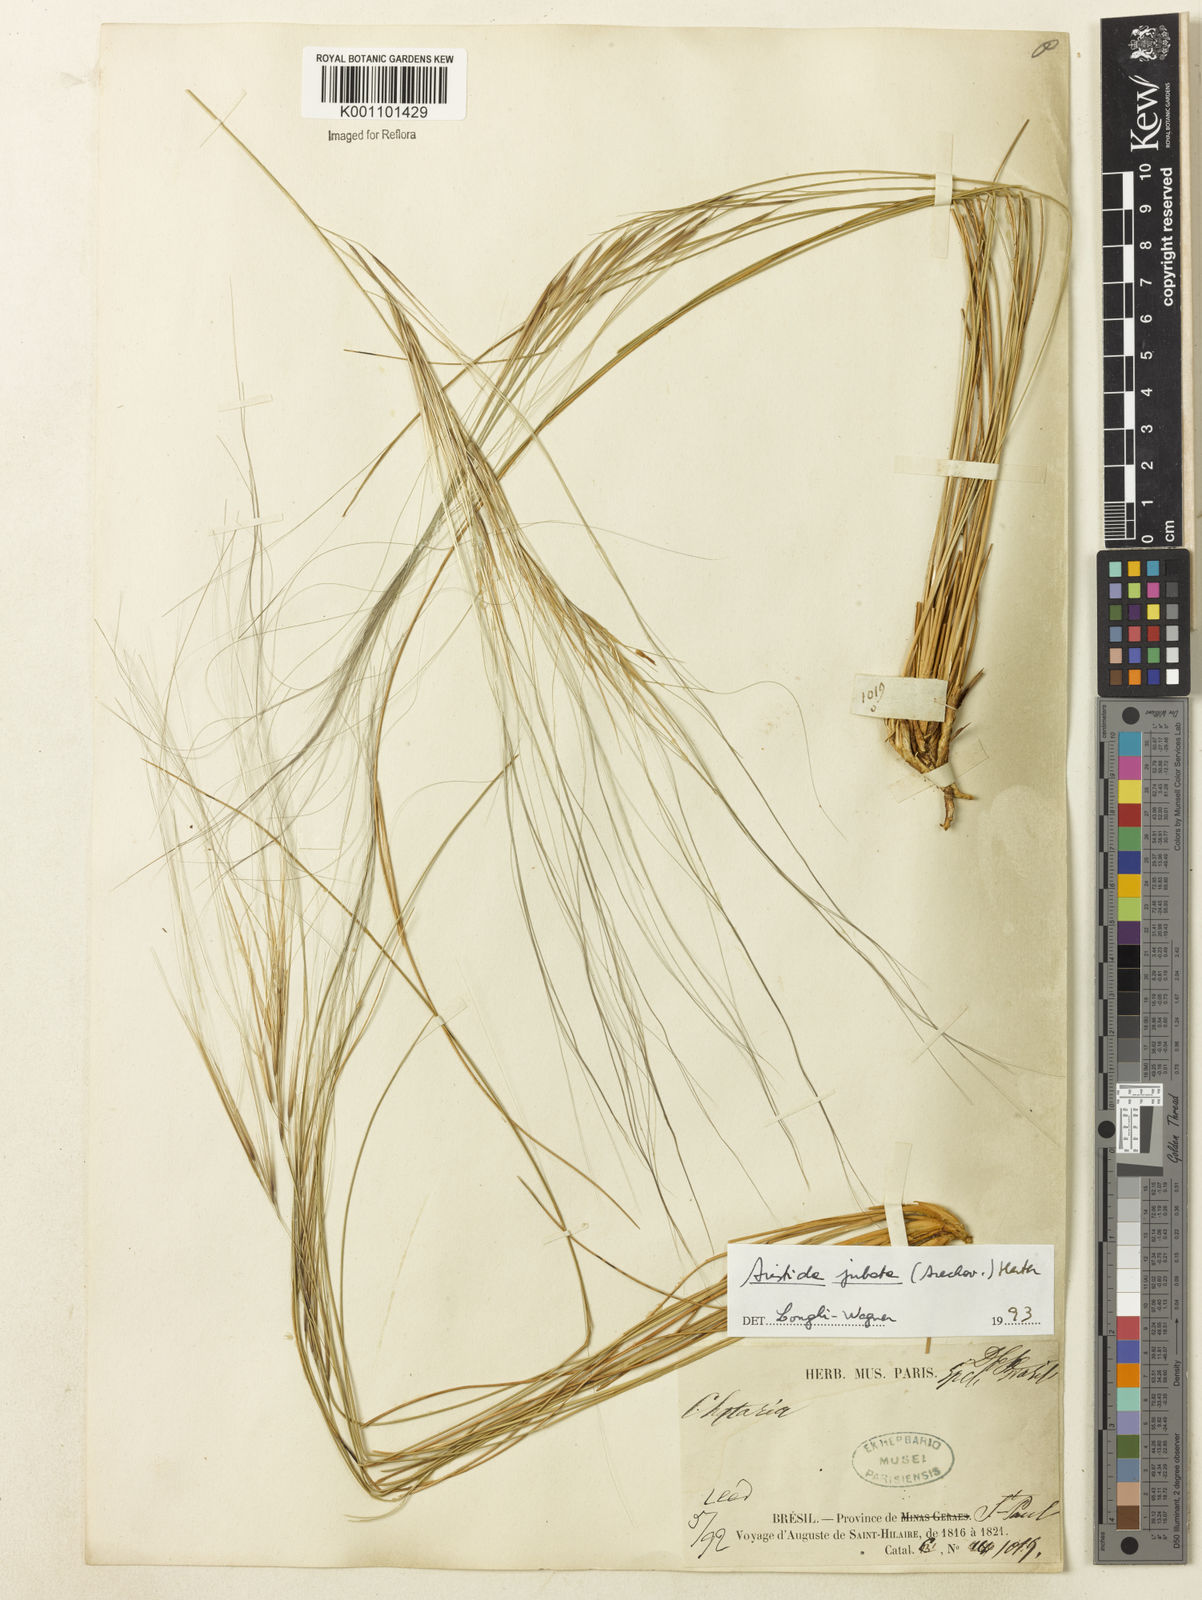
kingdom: Plantae
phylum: Tracheophyta
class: Liliopsida
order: Poales
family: Poaceae
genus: Aristida
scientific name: Aristida jubata
